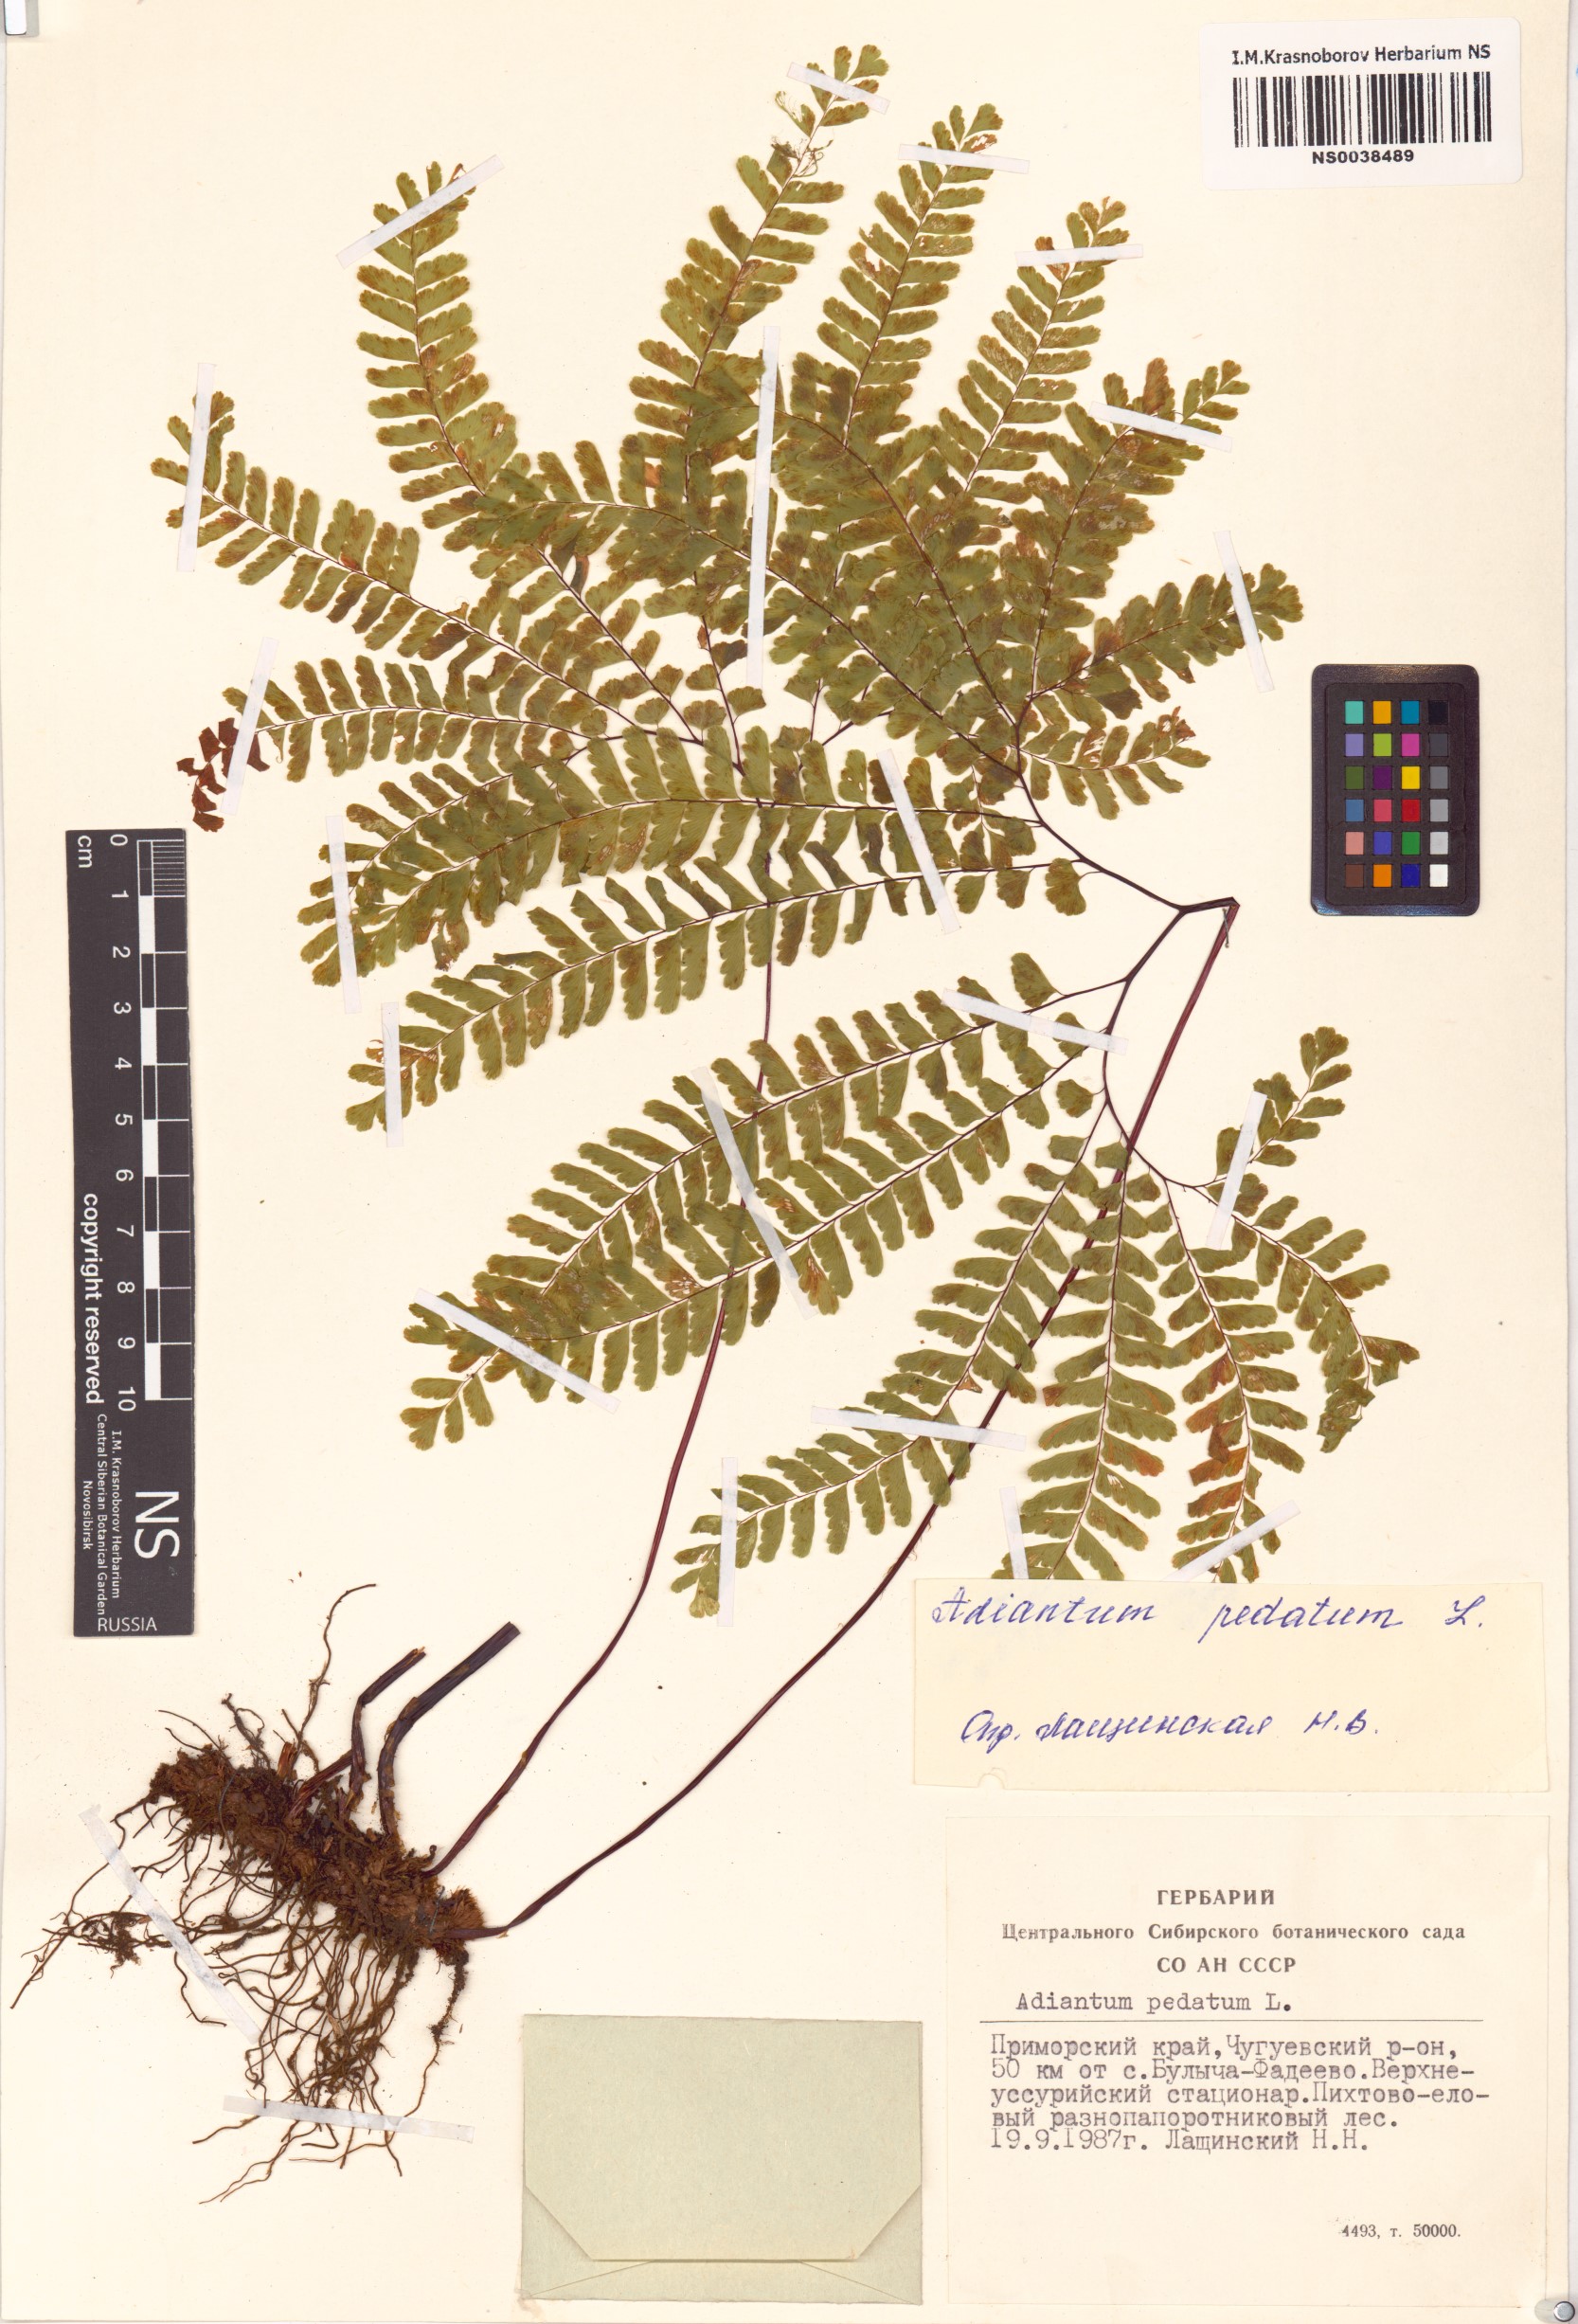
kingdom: Plantae
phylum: Tracheophyta
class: Polypodiopsida
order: Polypodiales
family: Pteridaceae
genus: Adiantum
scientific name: Adiantum pedatum
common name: Five-finger fern
